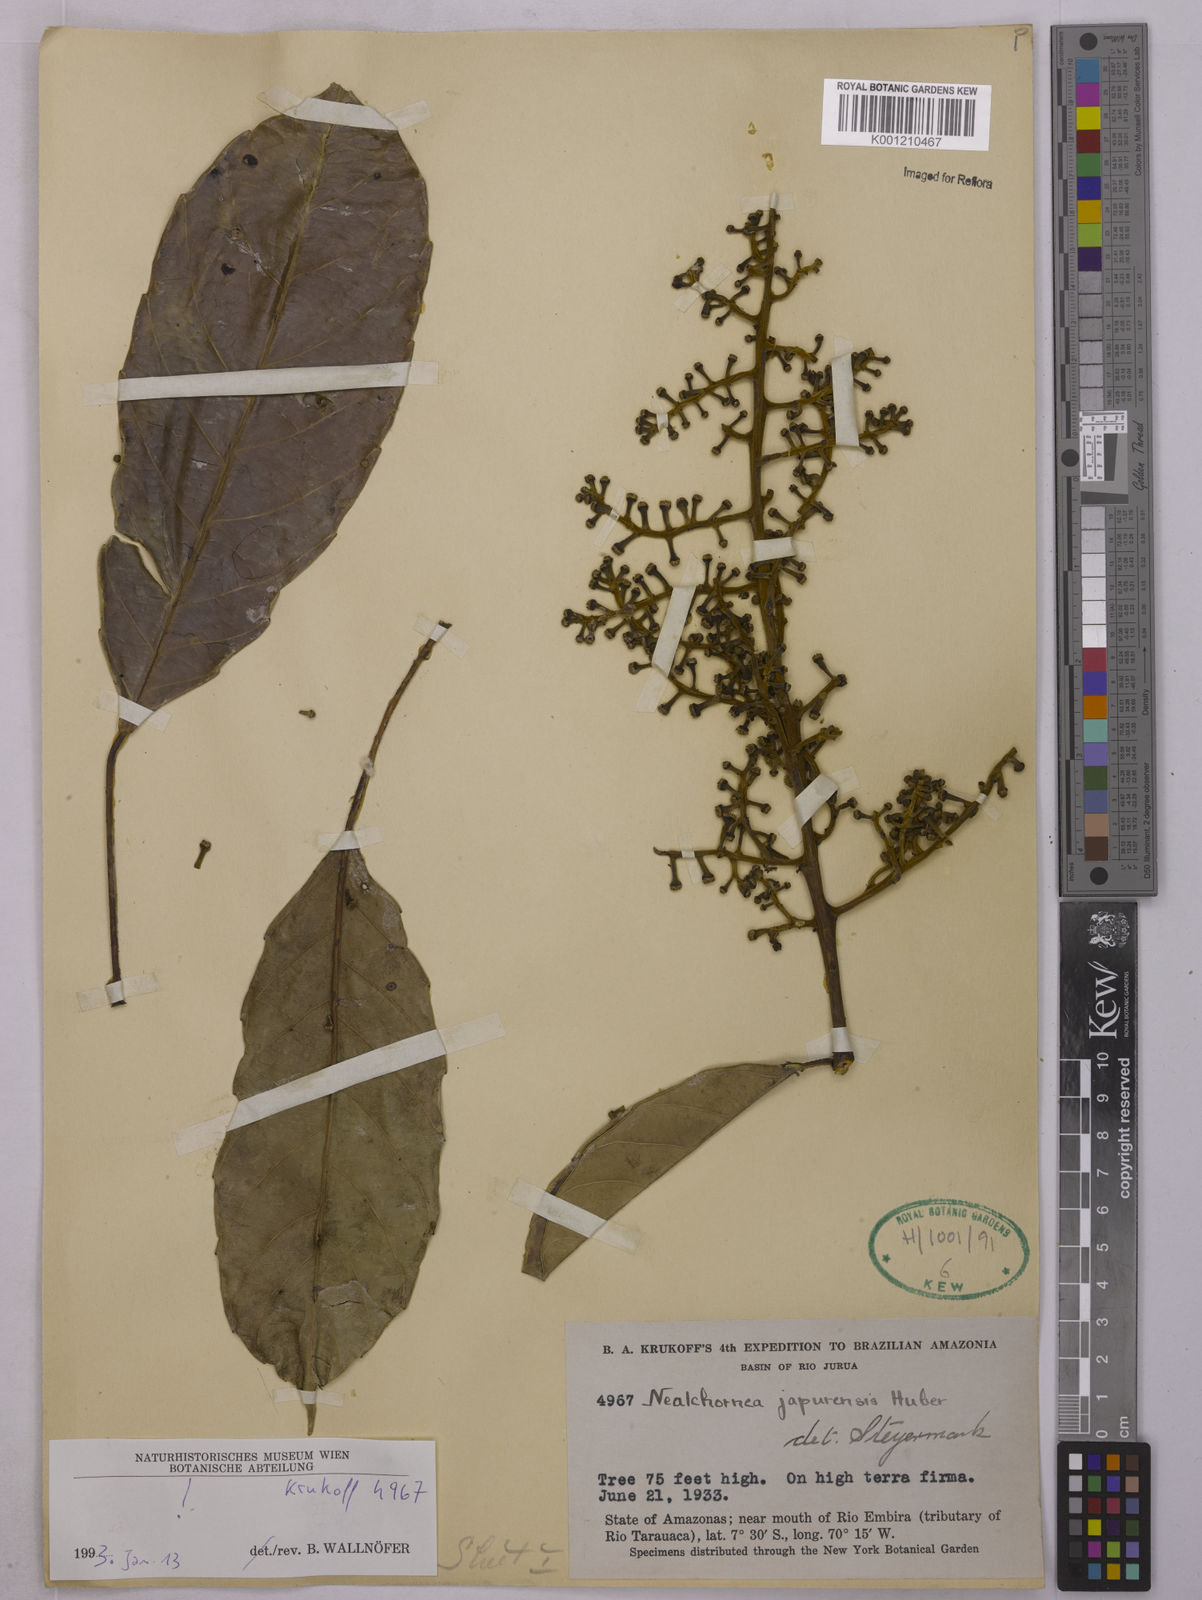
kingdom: Plantae
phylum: Tracheophyta
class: Magnoliopsida
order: Malpighiales
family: Euphorbiaceae
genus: Nealchornea
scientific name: Nealchornea yapurensis
